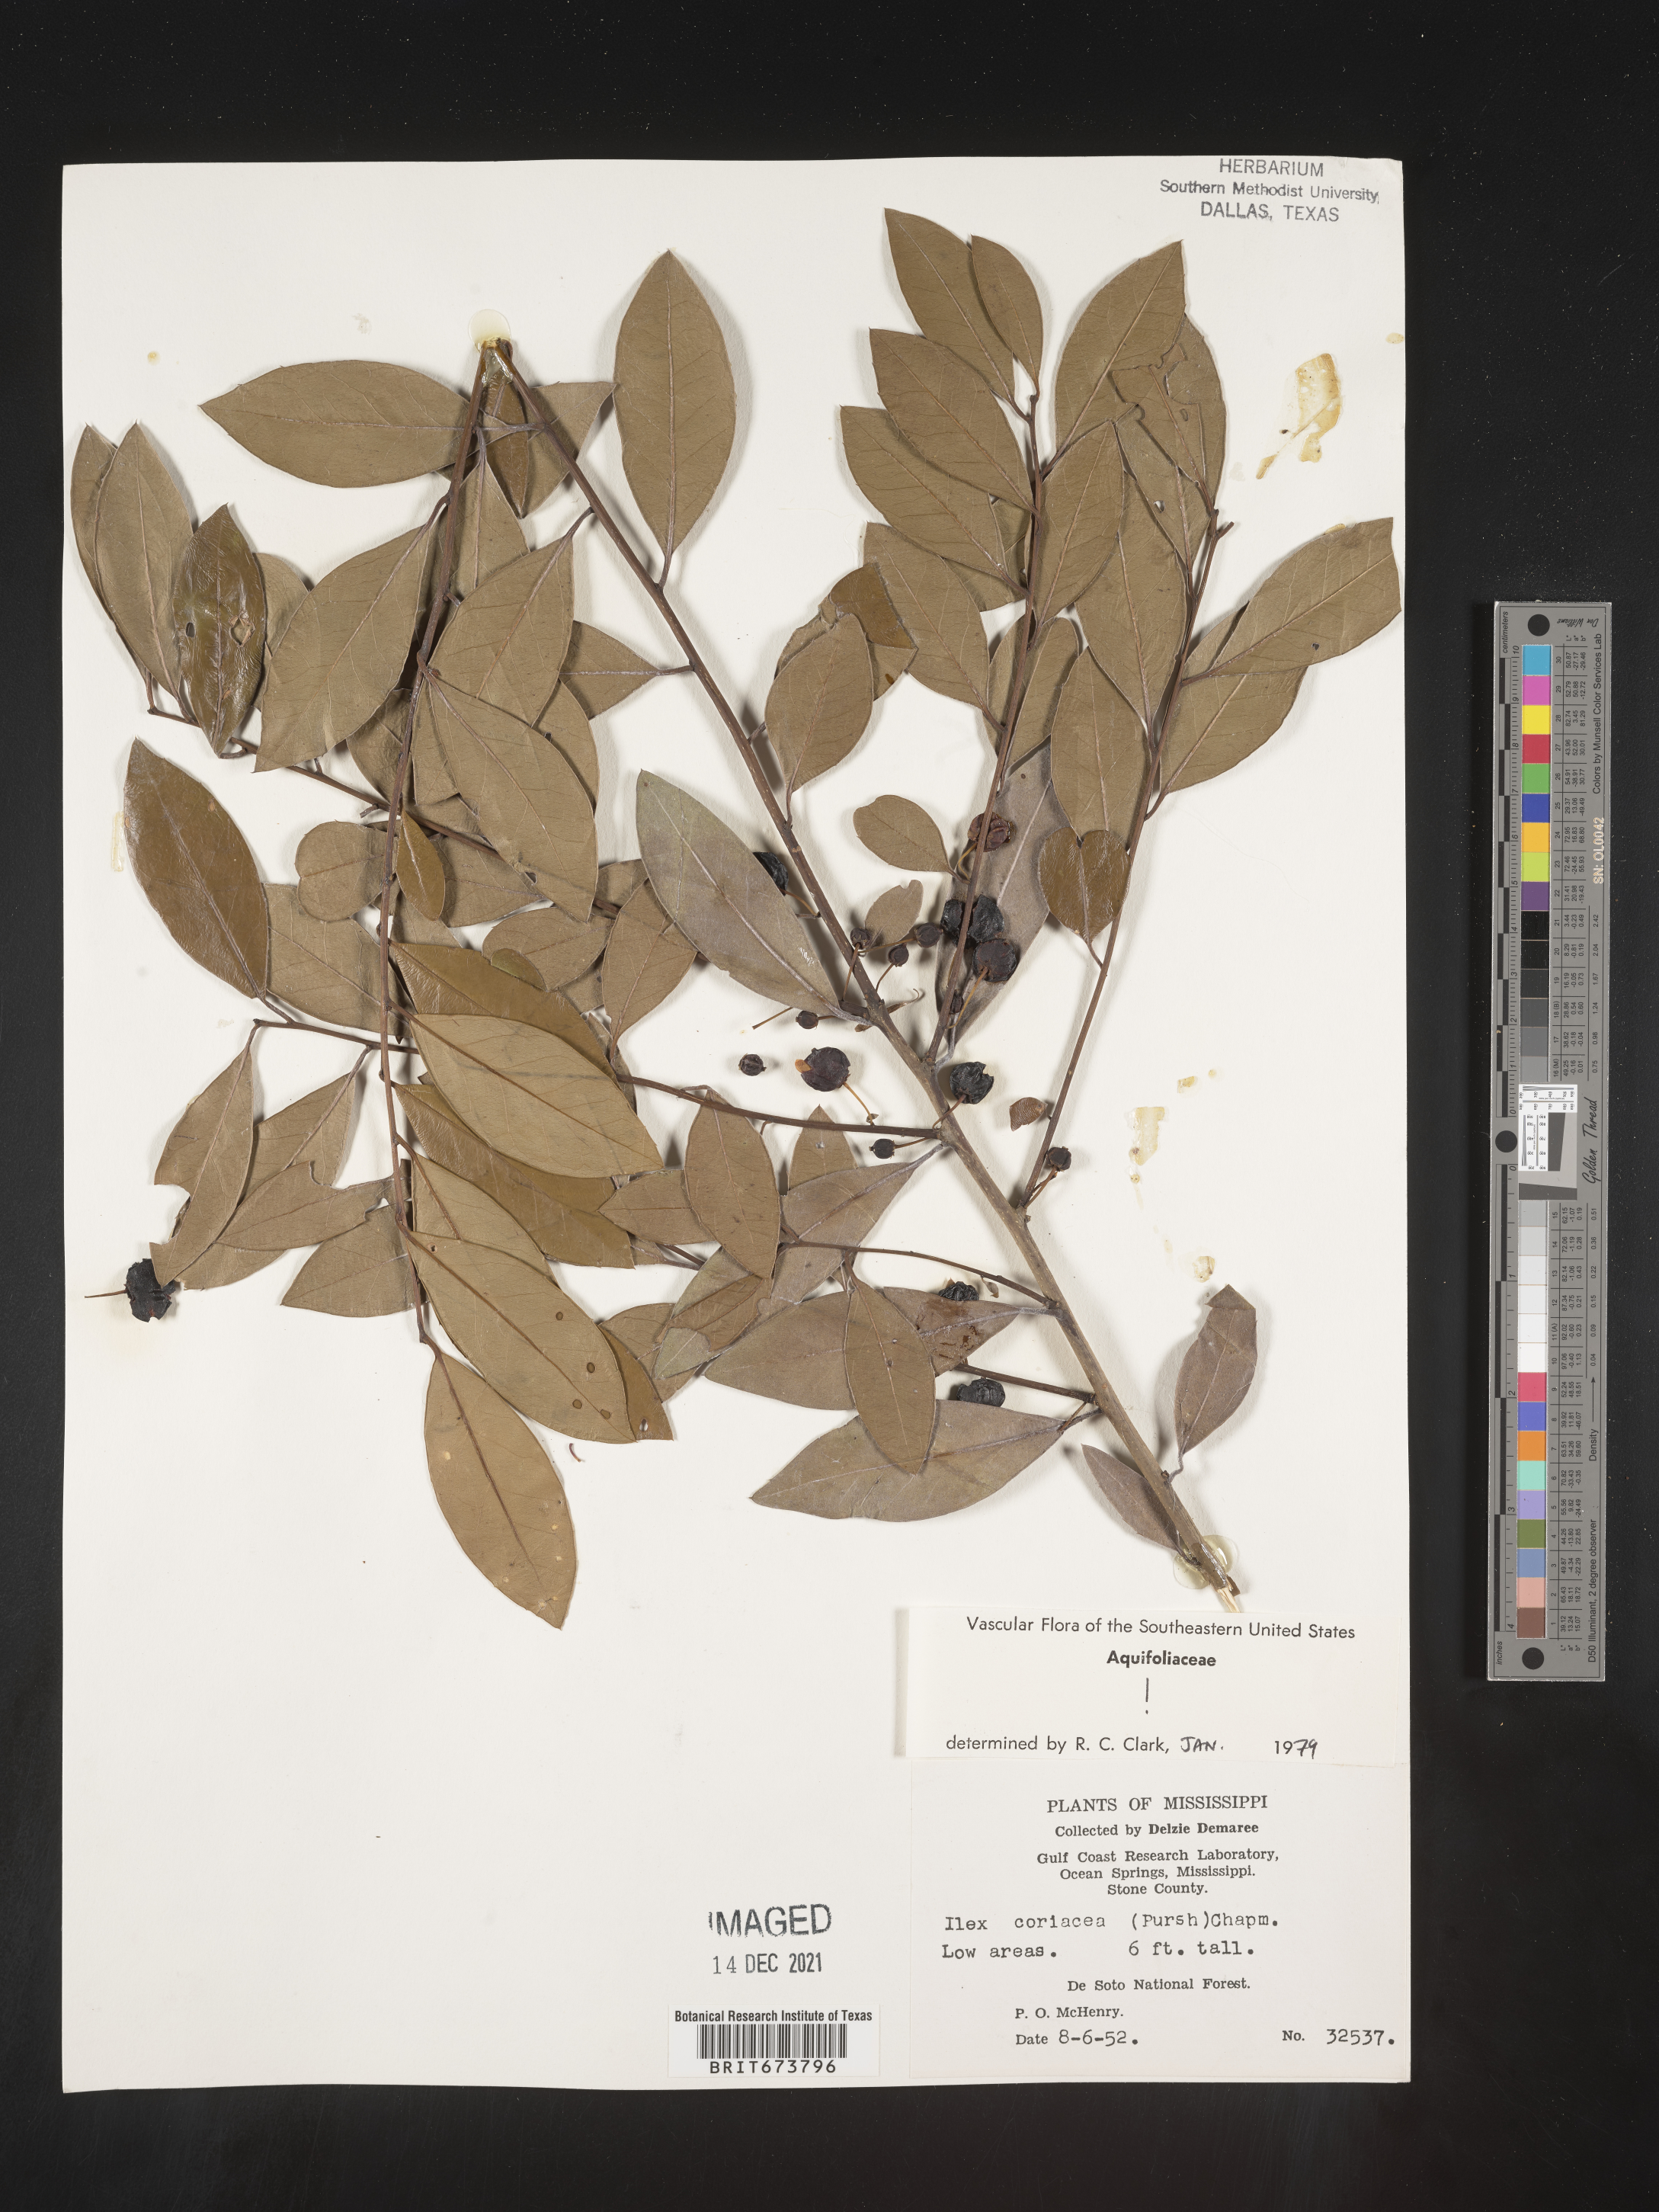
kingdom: Plantae
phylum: Tracheophyta
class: Magnoliopsida
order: Aquifoliales
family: Aquifoliaceae
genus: Ilex
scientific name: Ilex coriacea
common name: Sweet gallberry
